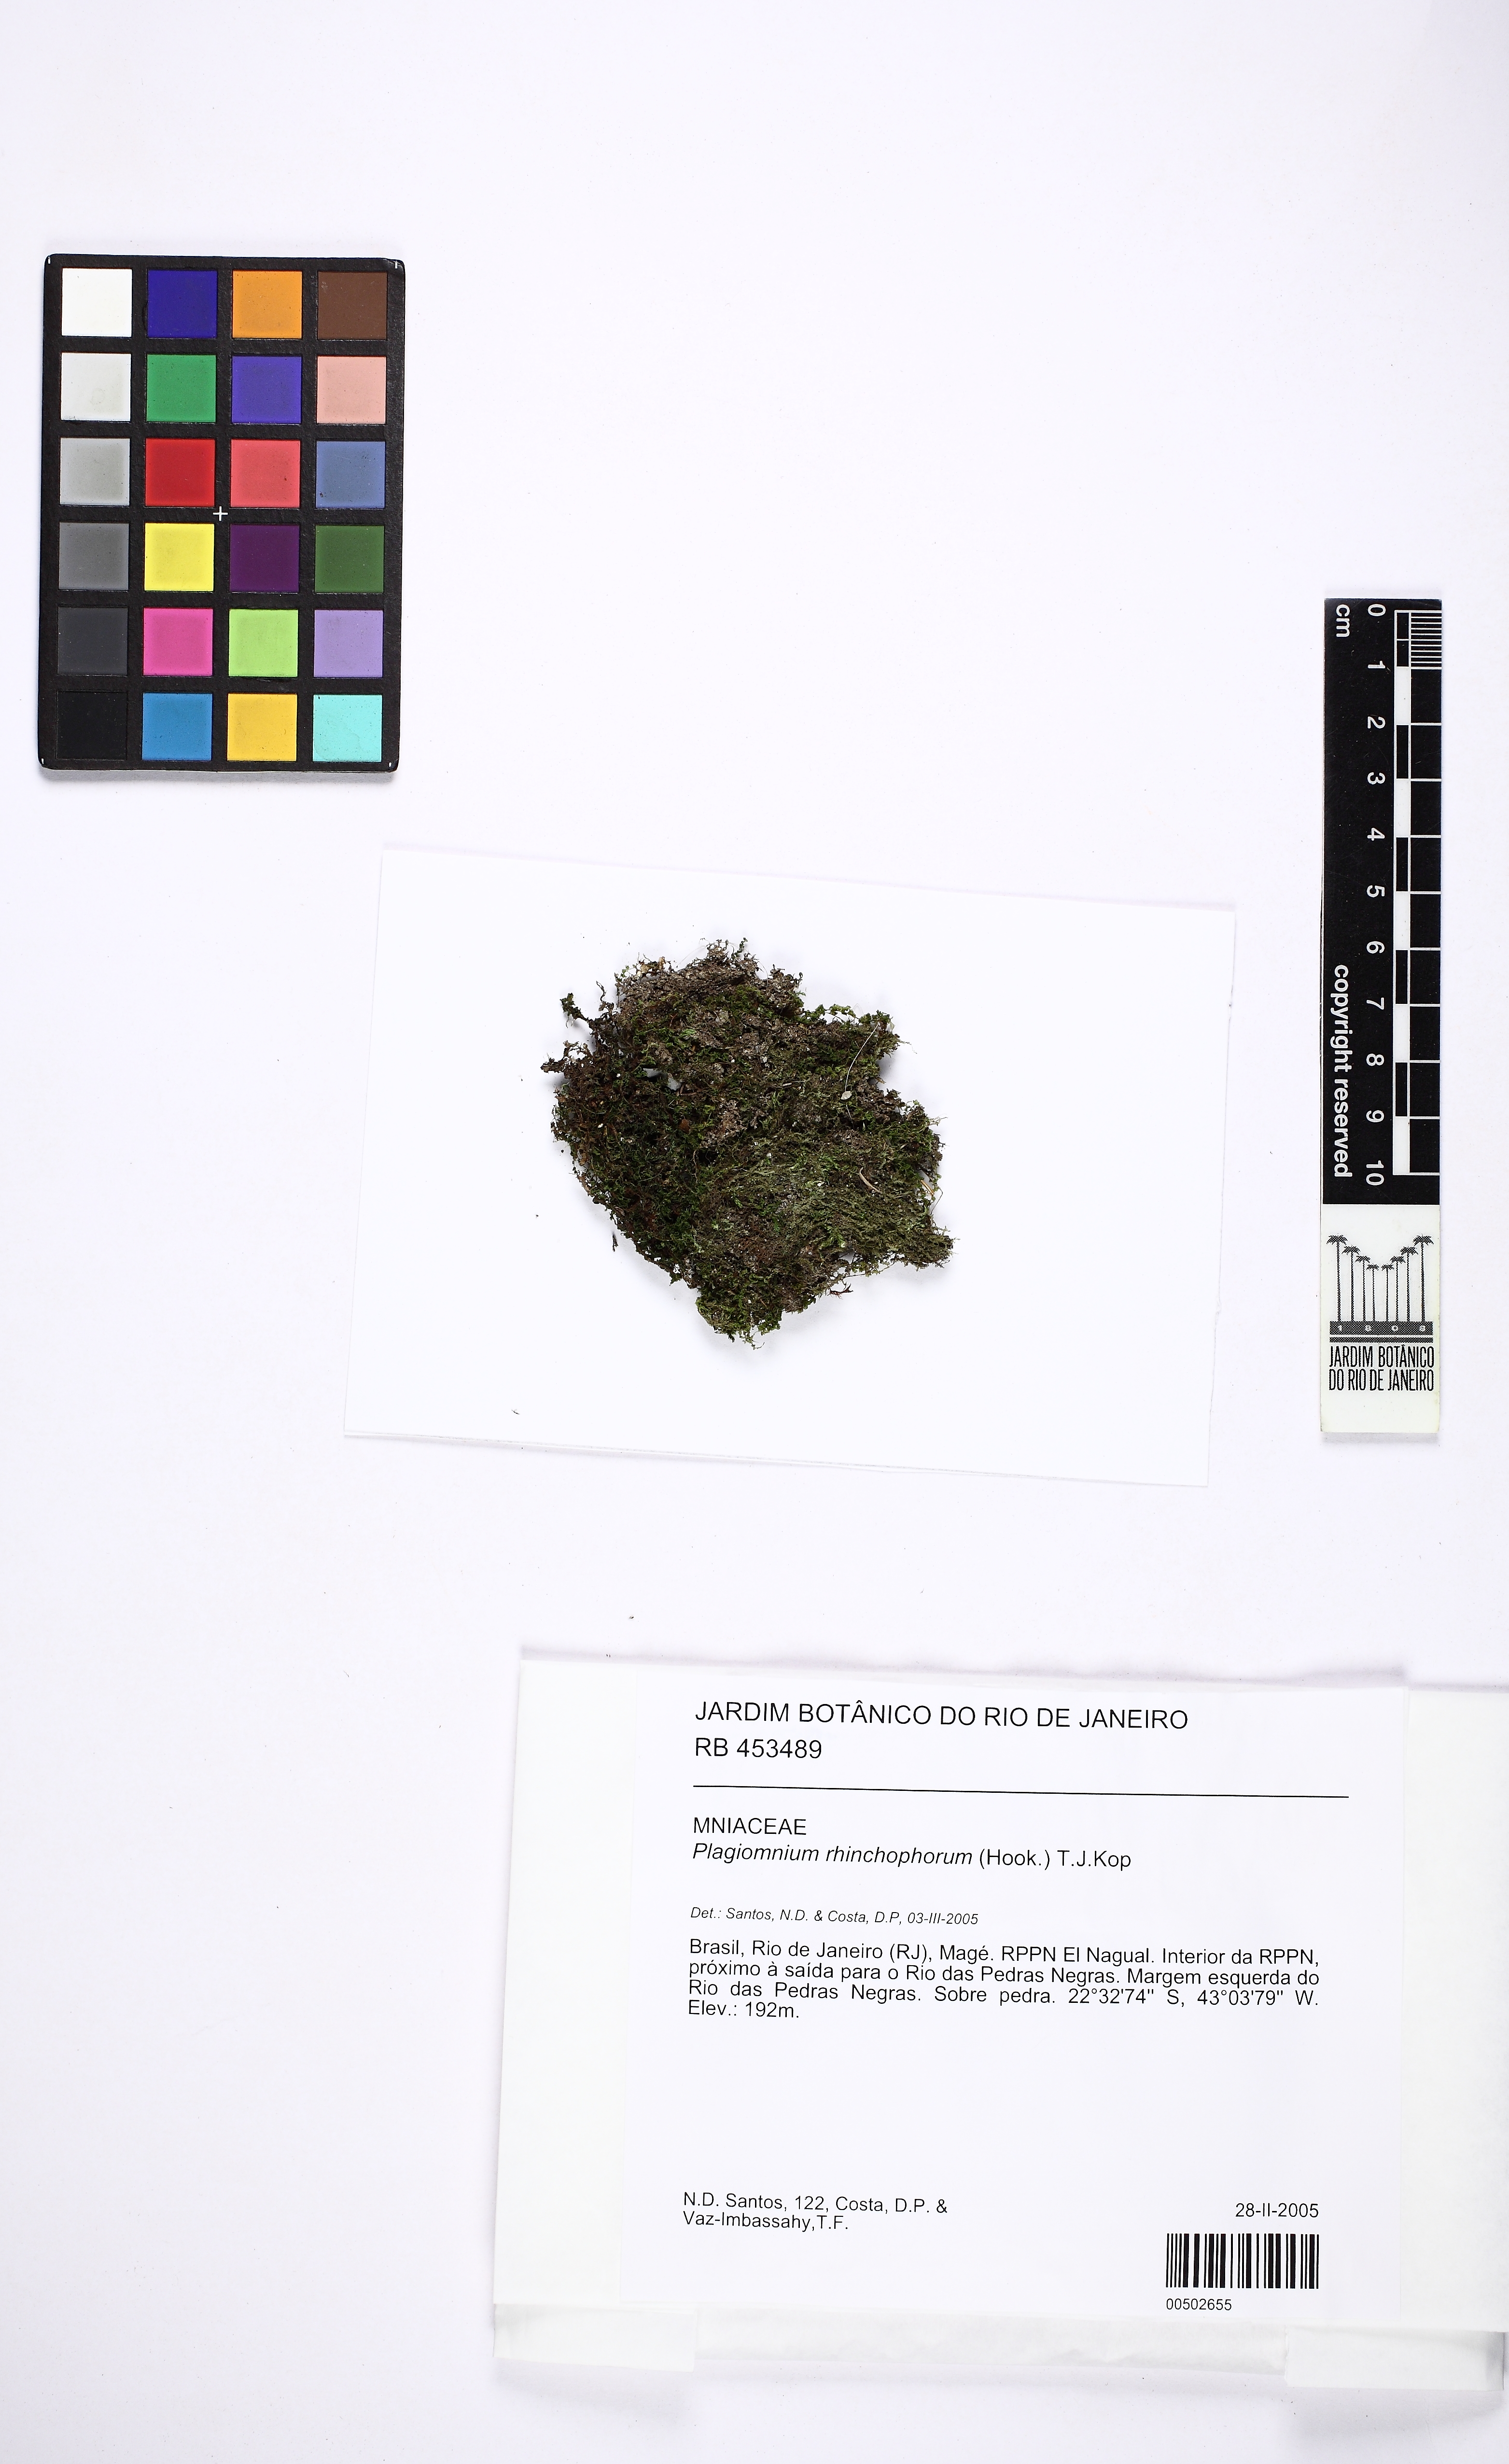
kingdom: Plantae
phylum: Bryophyta
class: Bryopsida
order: Bryales
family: Mniaceae
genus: Plagiomnium
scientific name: Plagiomnium rhynchophorum
